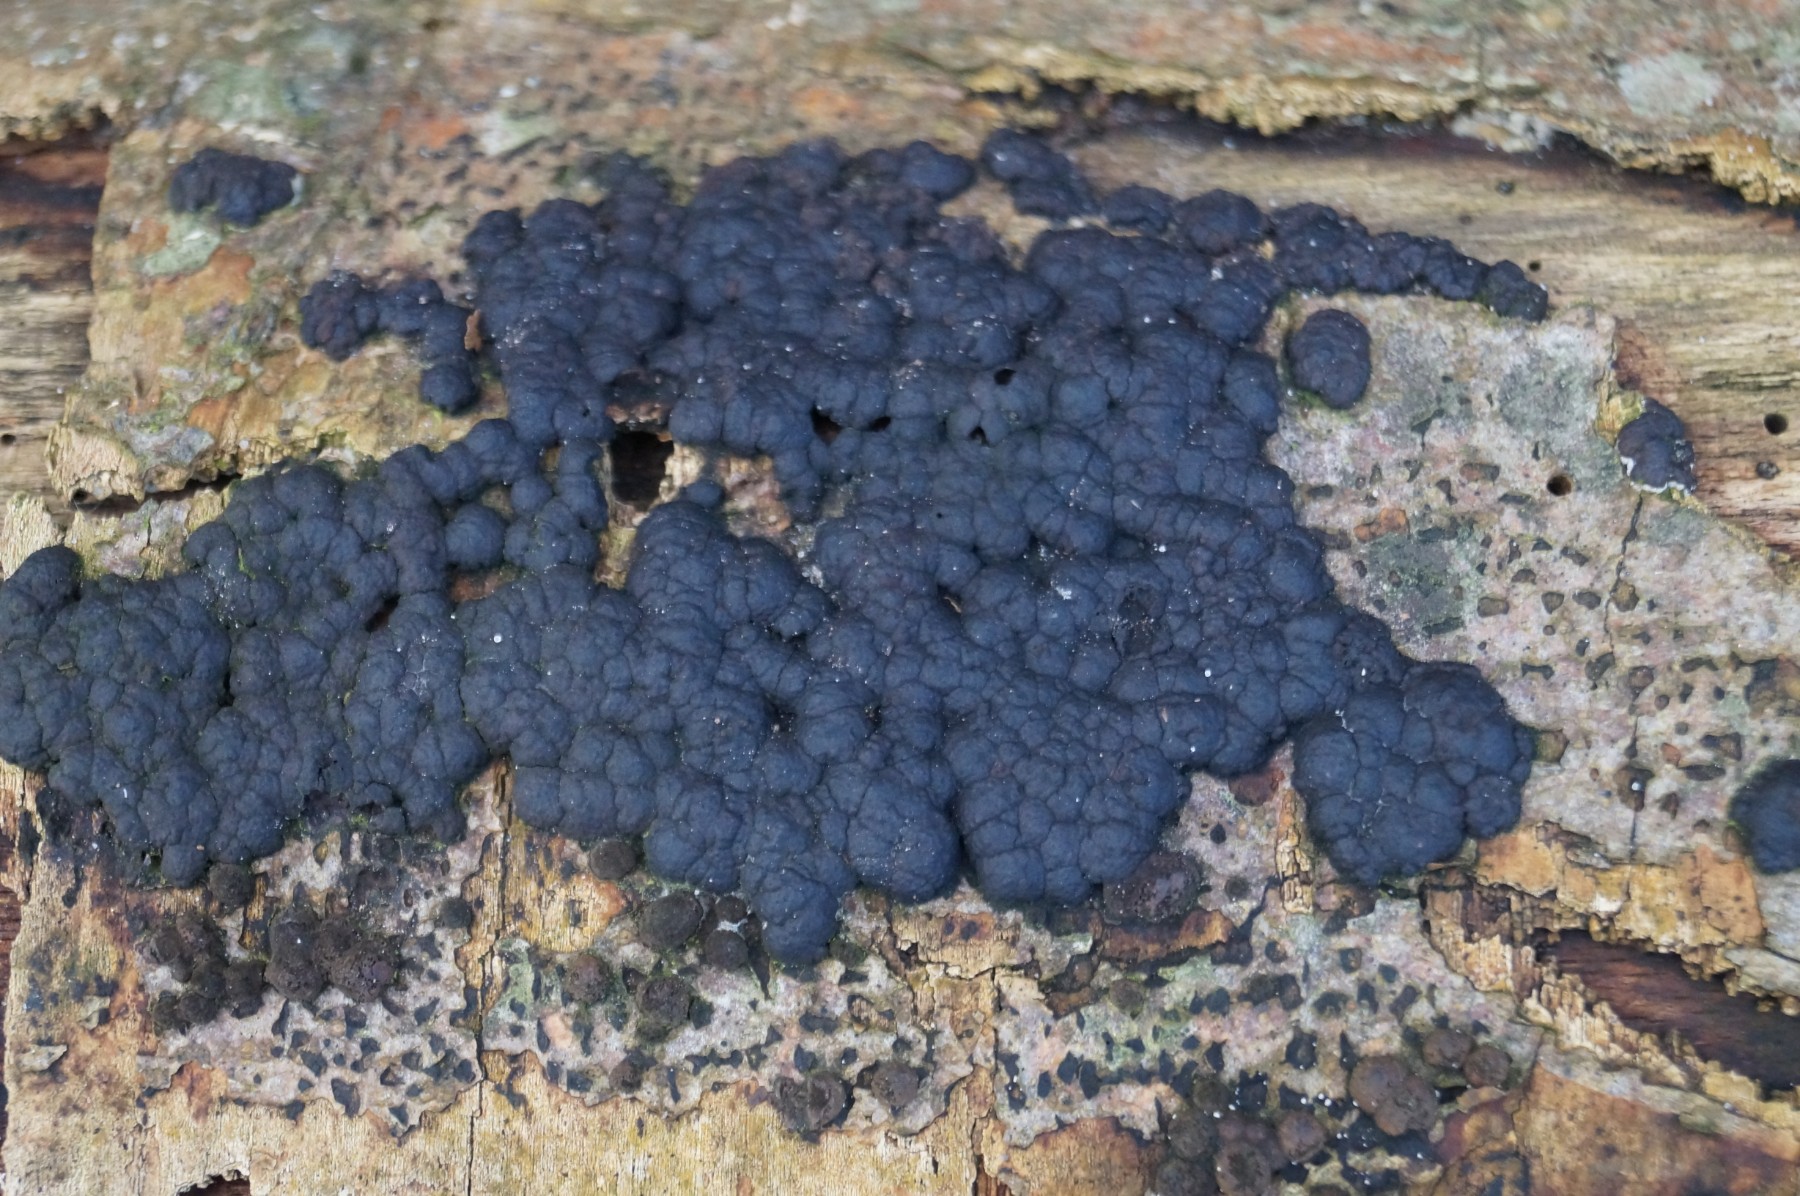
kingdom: Fungi
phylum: Ascomycota
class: Sordariomycetes
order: Xylariales
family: Hypoxylaceae
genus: Jackrogersella
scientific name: Jackrogersella cohaerens
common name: sammenflydende kulbær
